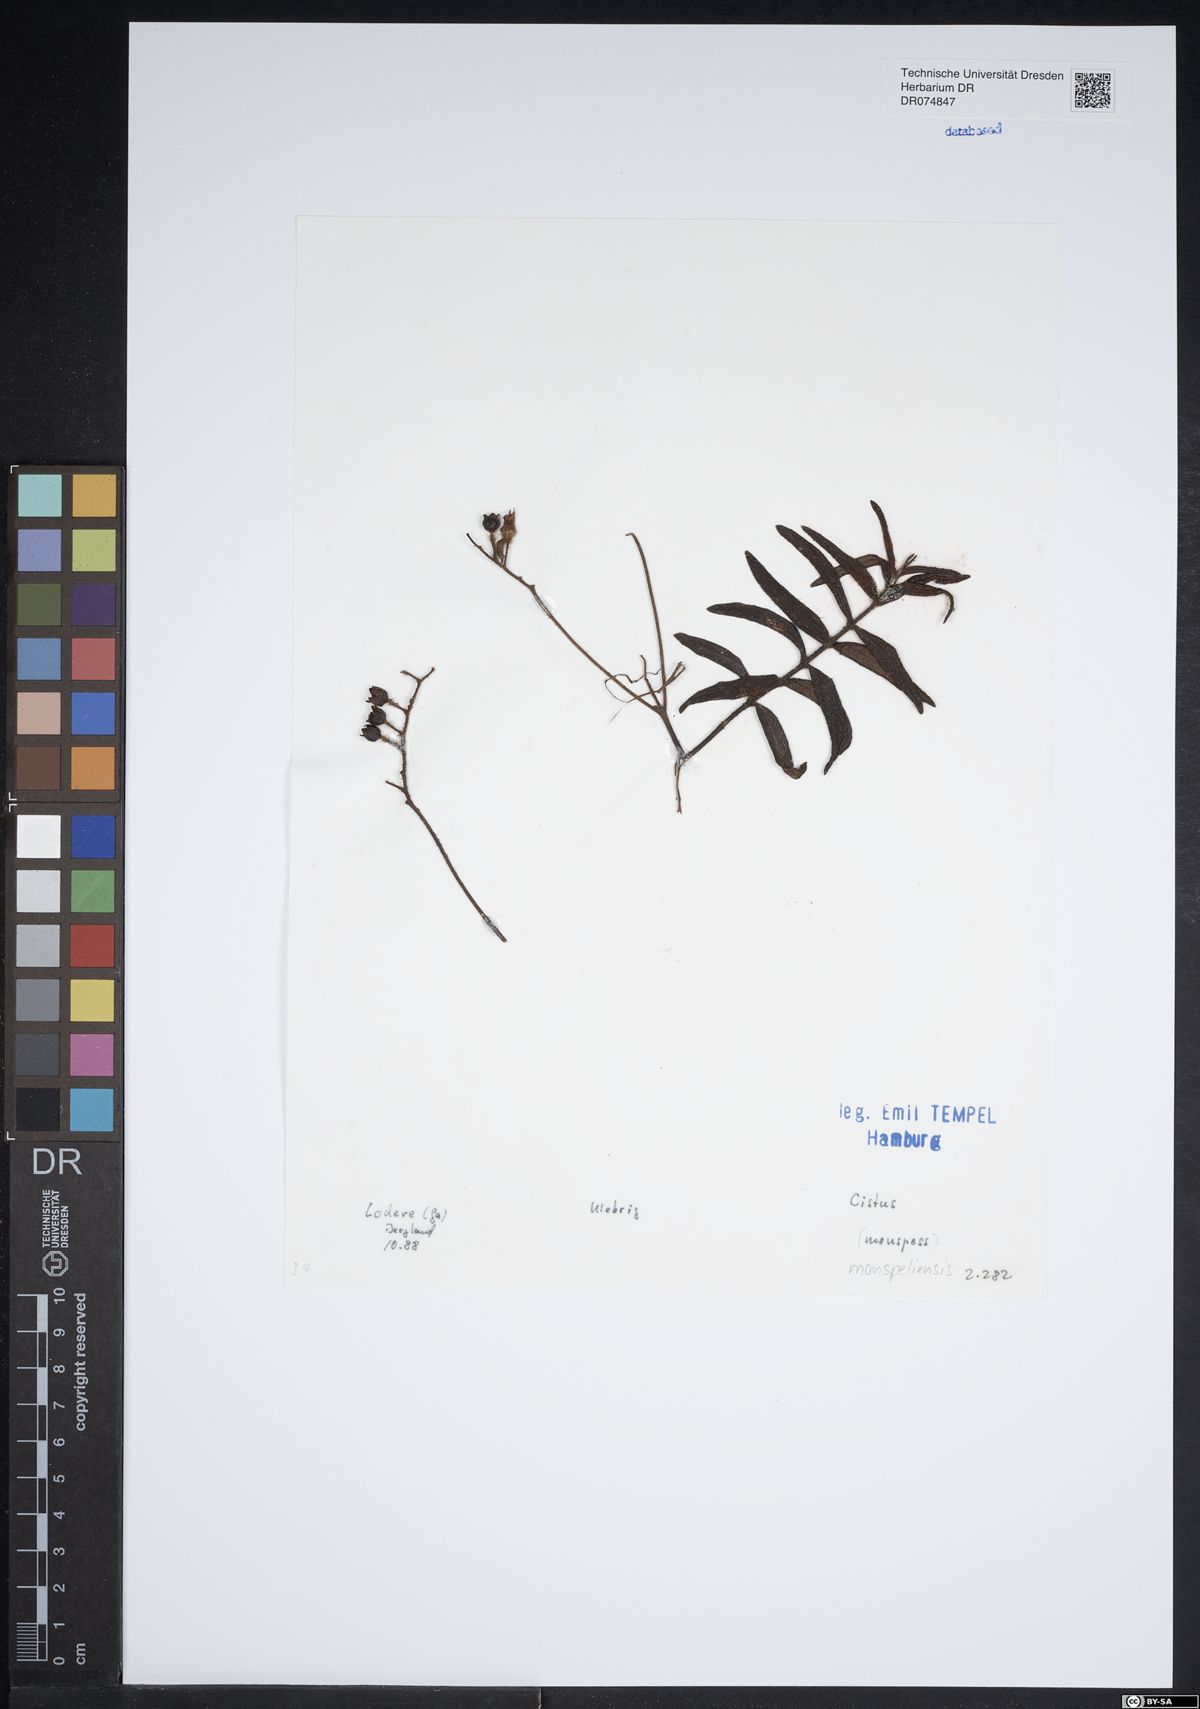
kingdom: Plantae
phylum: Tracheophyta
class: Magnoliopsida
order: Malvales
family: Cistaceae
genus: Cistus
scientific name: Cistus monspeliensis
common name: Montpelier cistus
